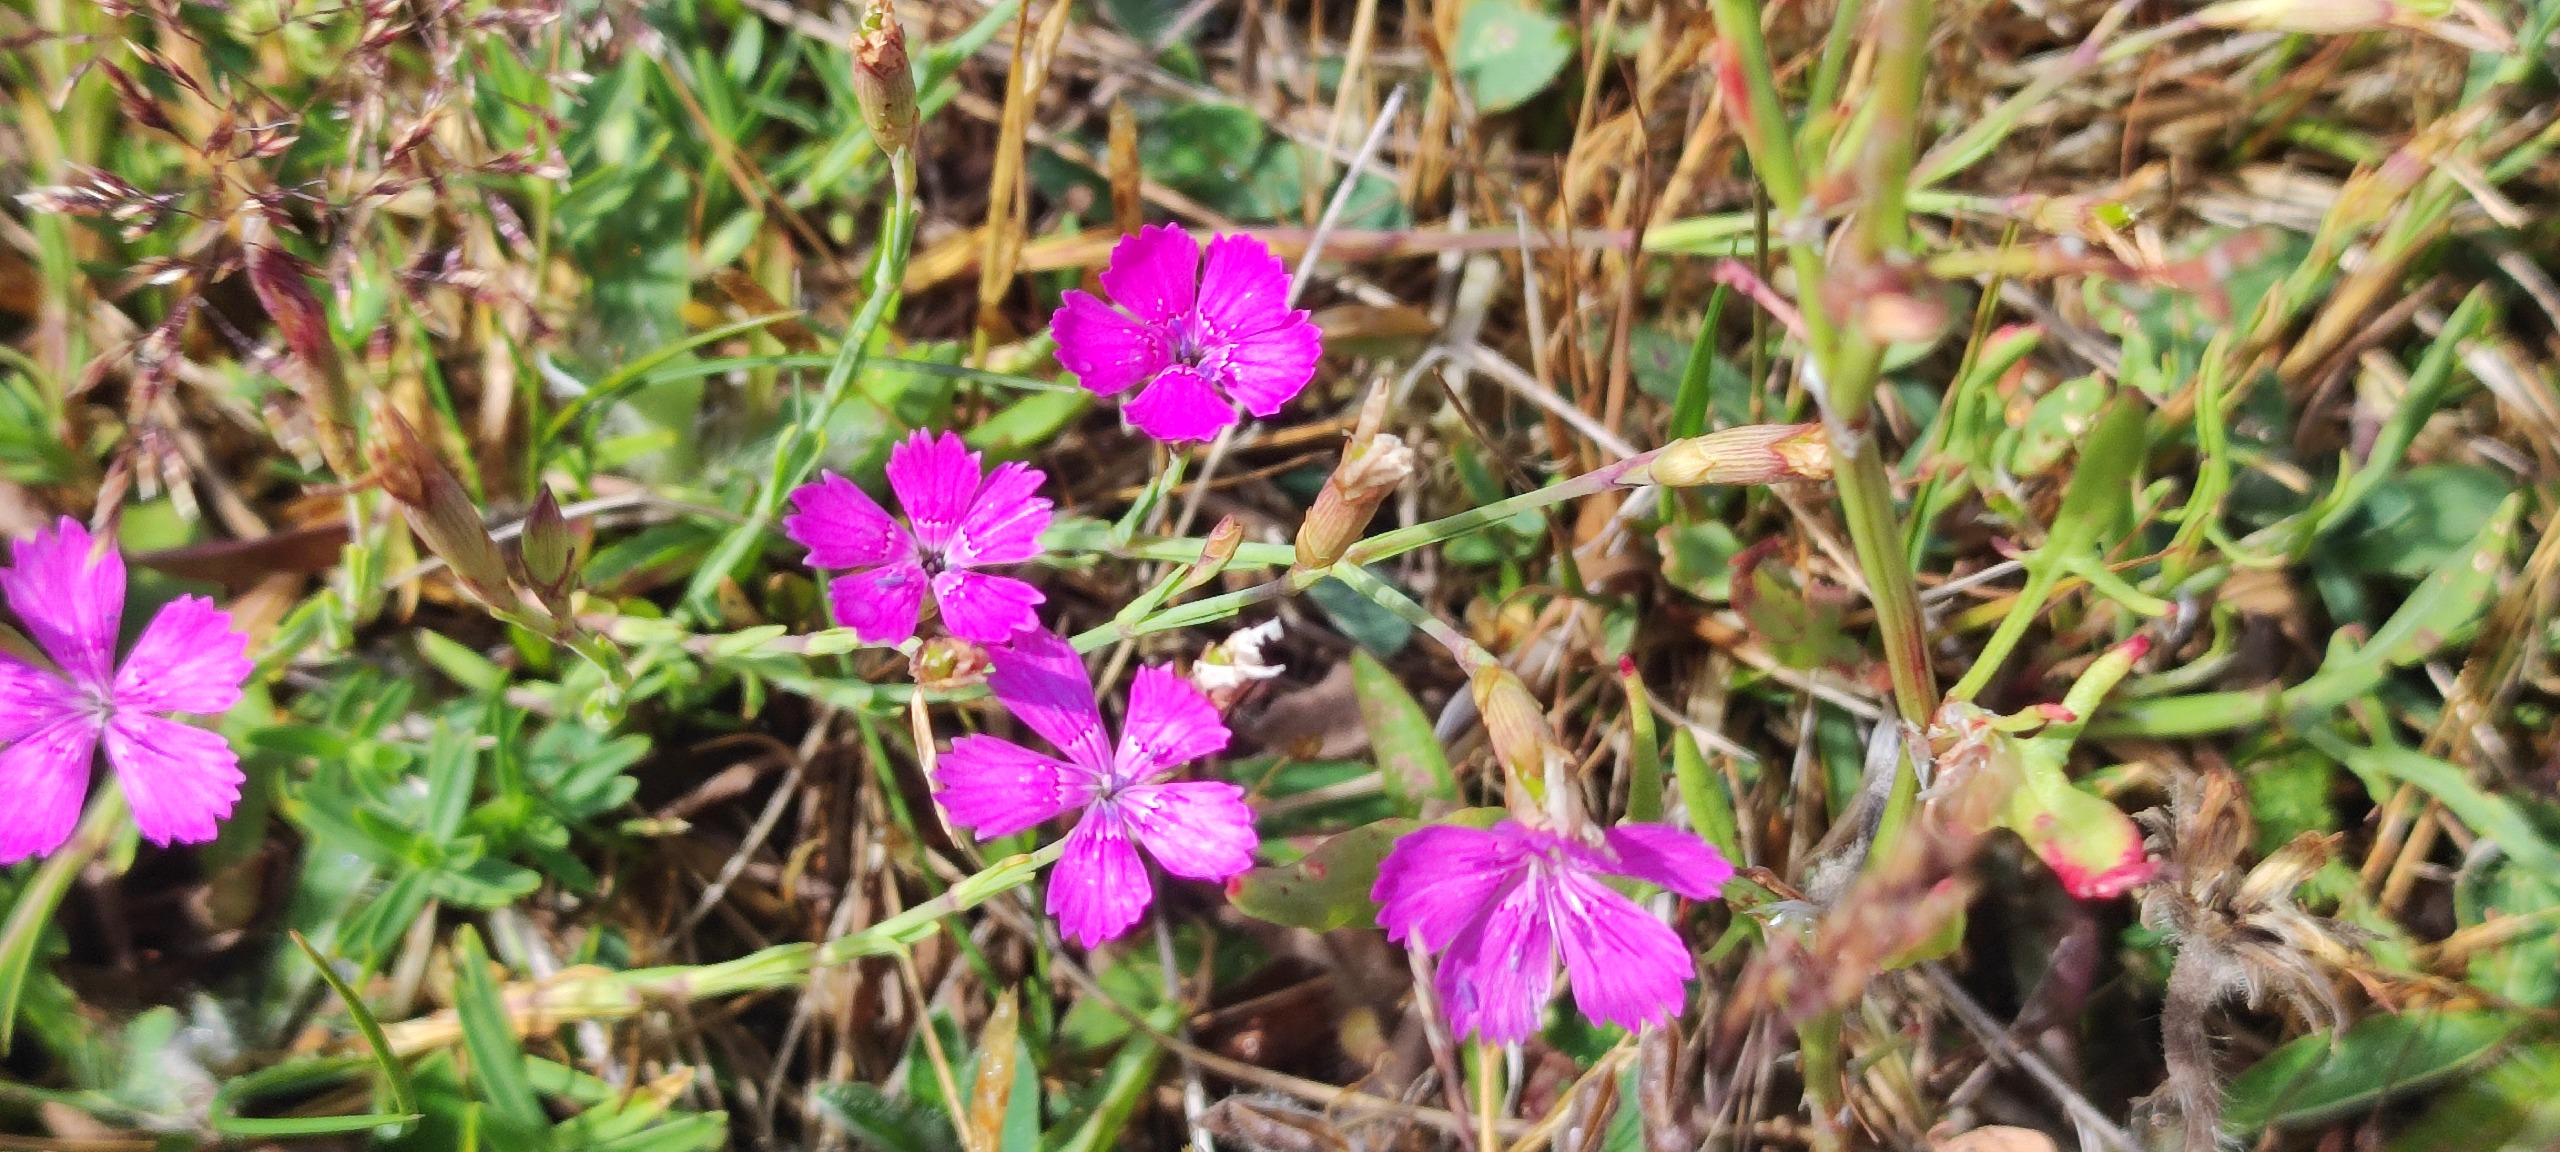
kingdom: Plantae
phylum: Tracheophyta
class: Magnoliopsida
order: Caryophyllales
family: Caryophyllaceae
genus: Dianthus
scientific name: Dianthus deltoides
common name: Bakke-nellike
